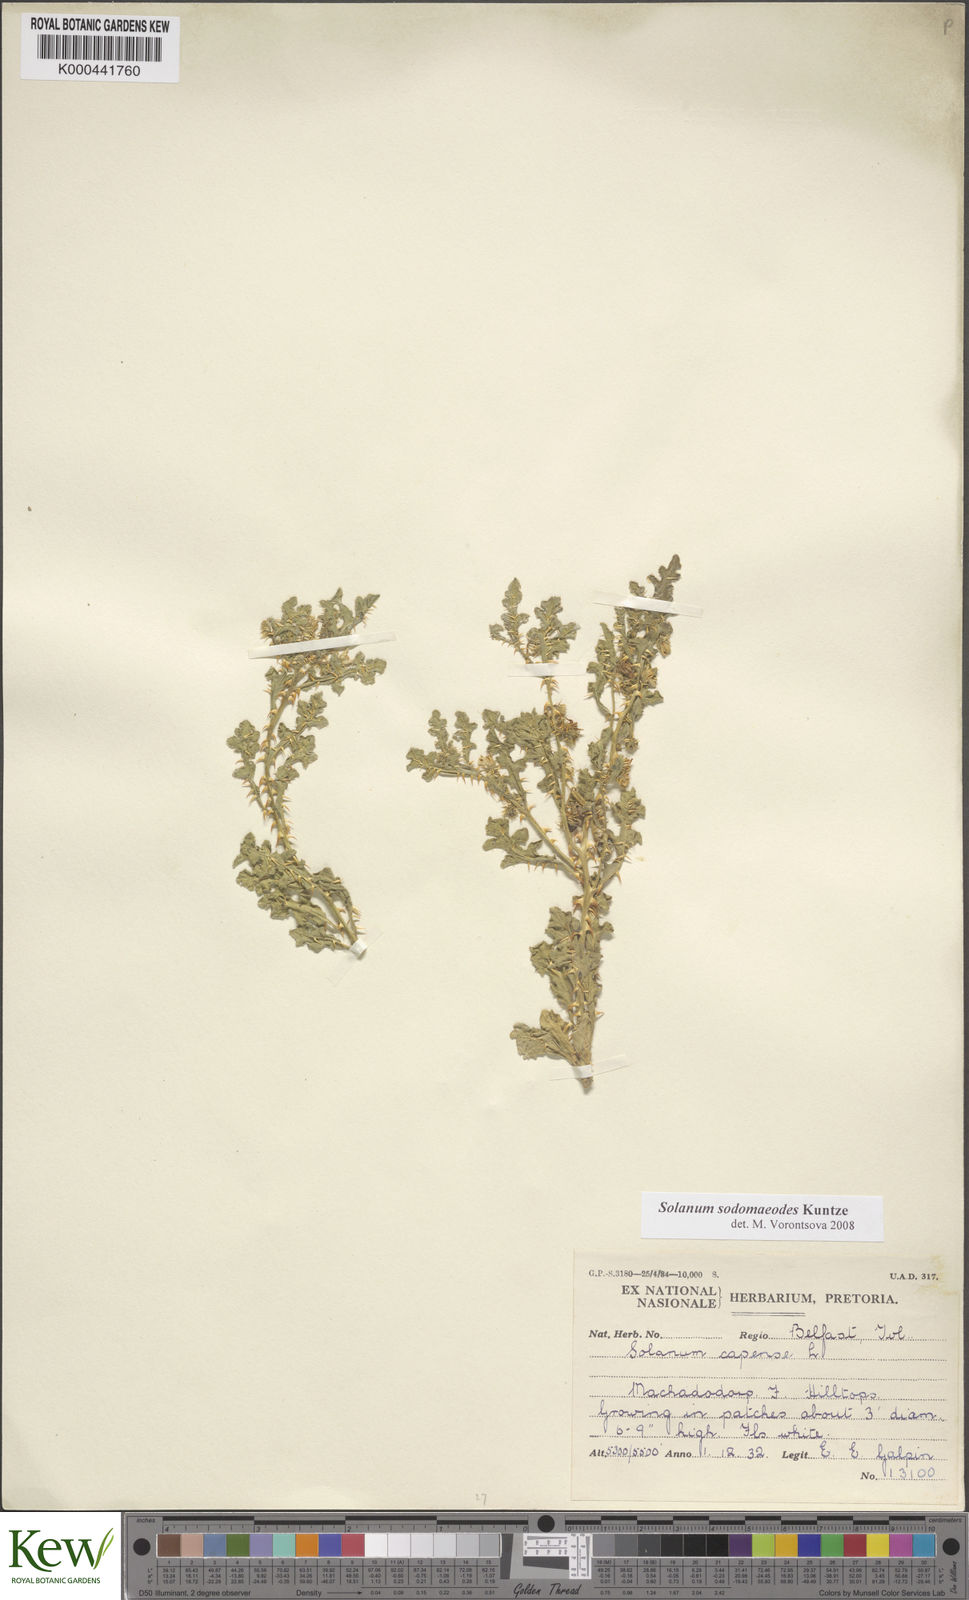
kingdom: Plantae
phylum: Tracheophyta
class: Magnoliopsida
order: Solanales
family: Solanaceae
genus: Solanum
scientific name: Solanum
